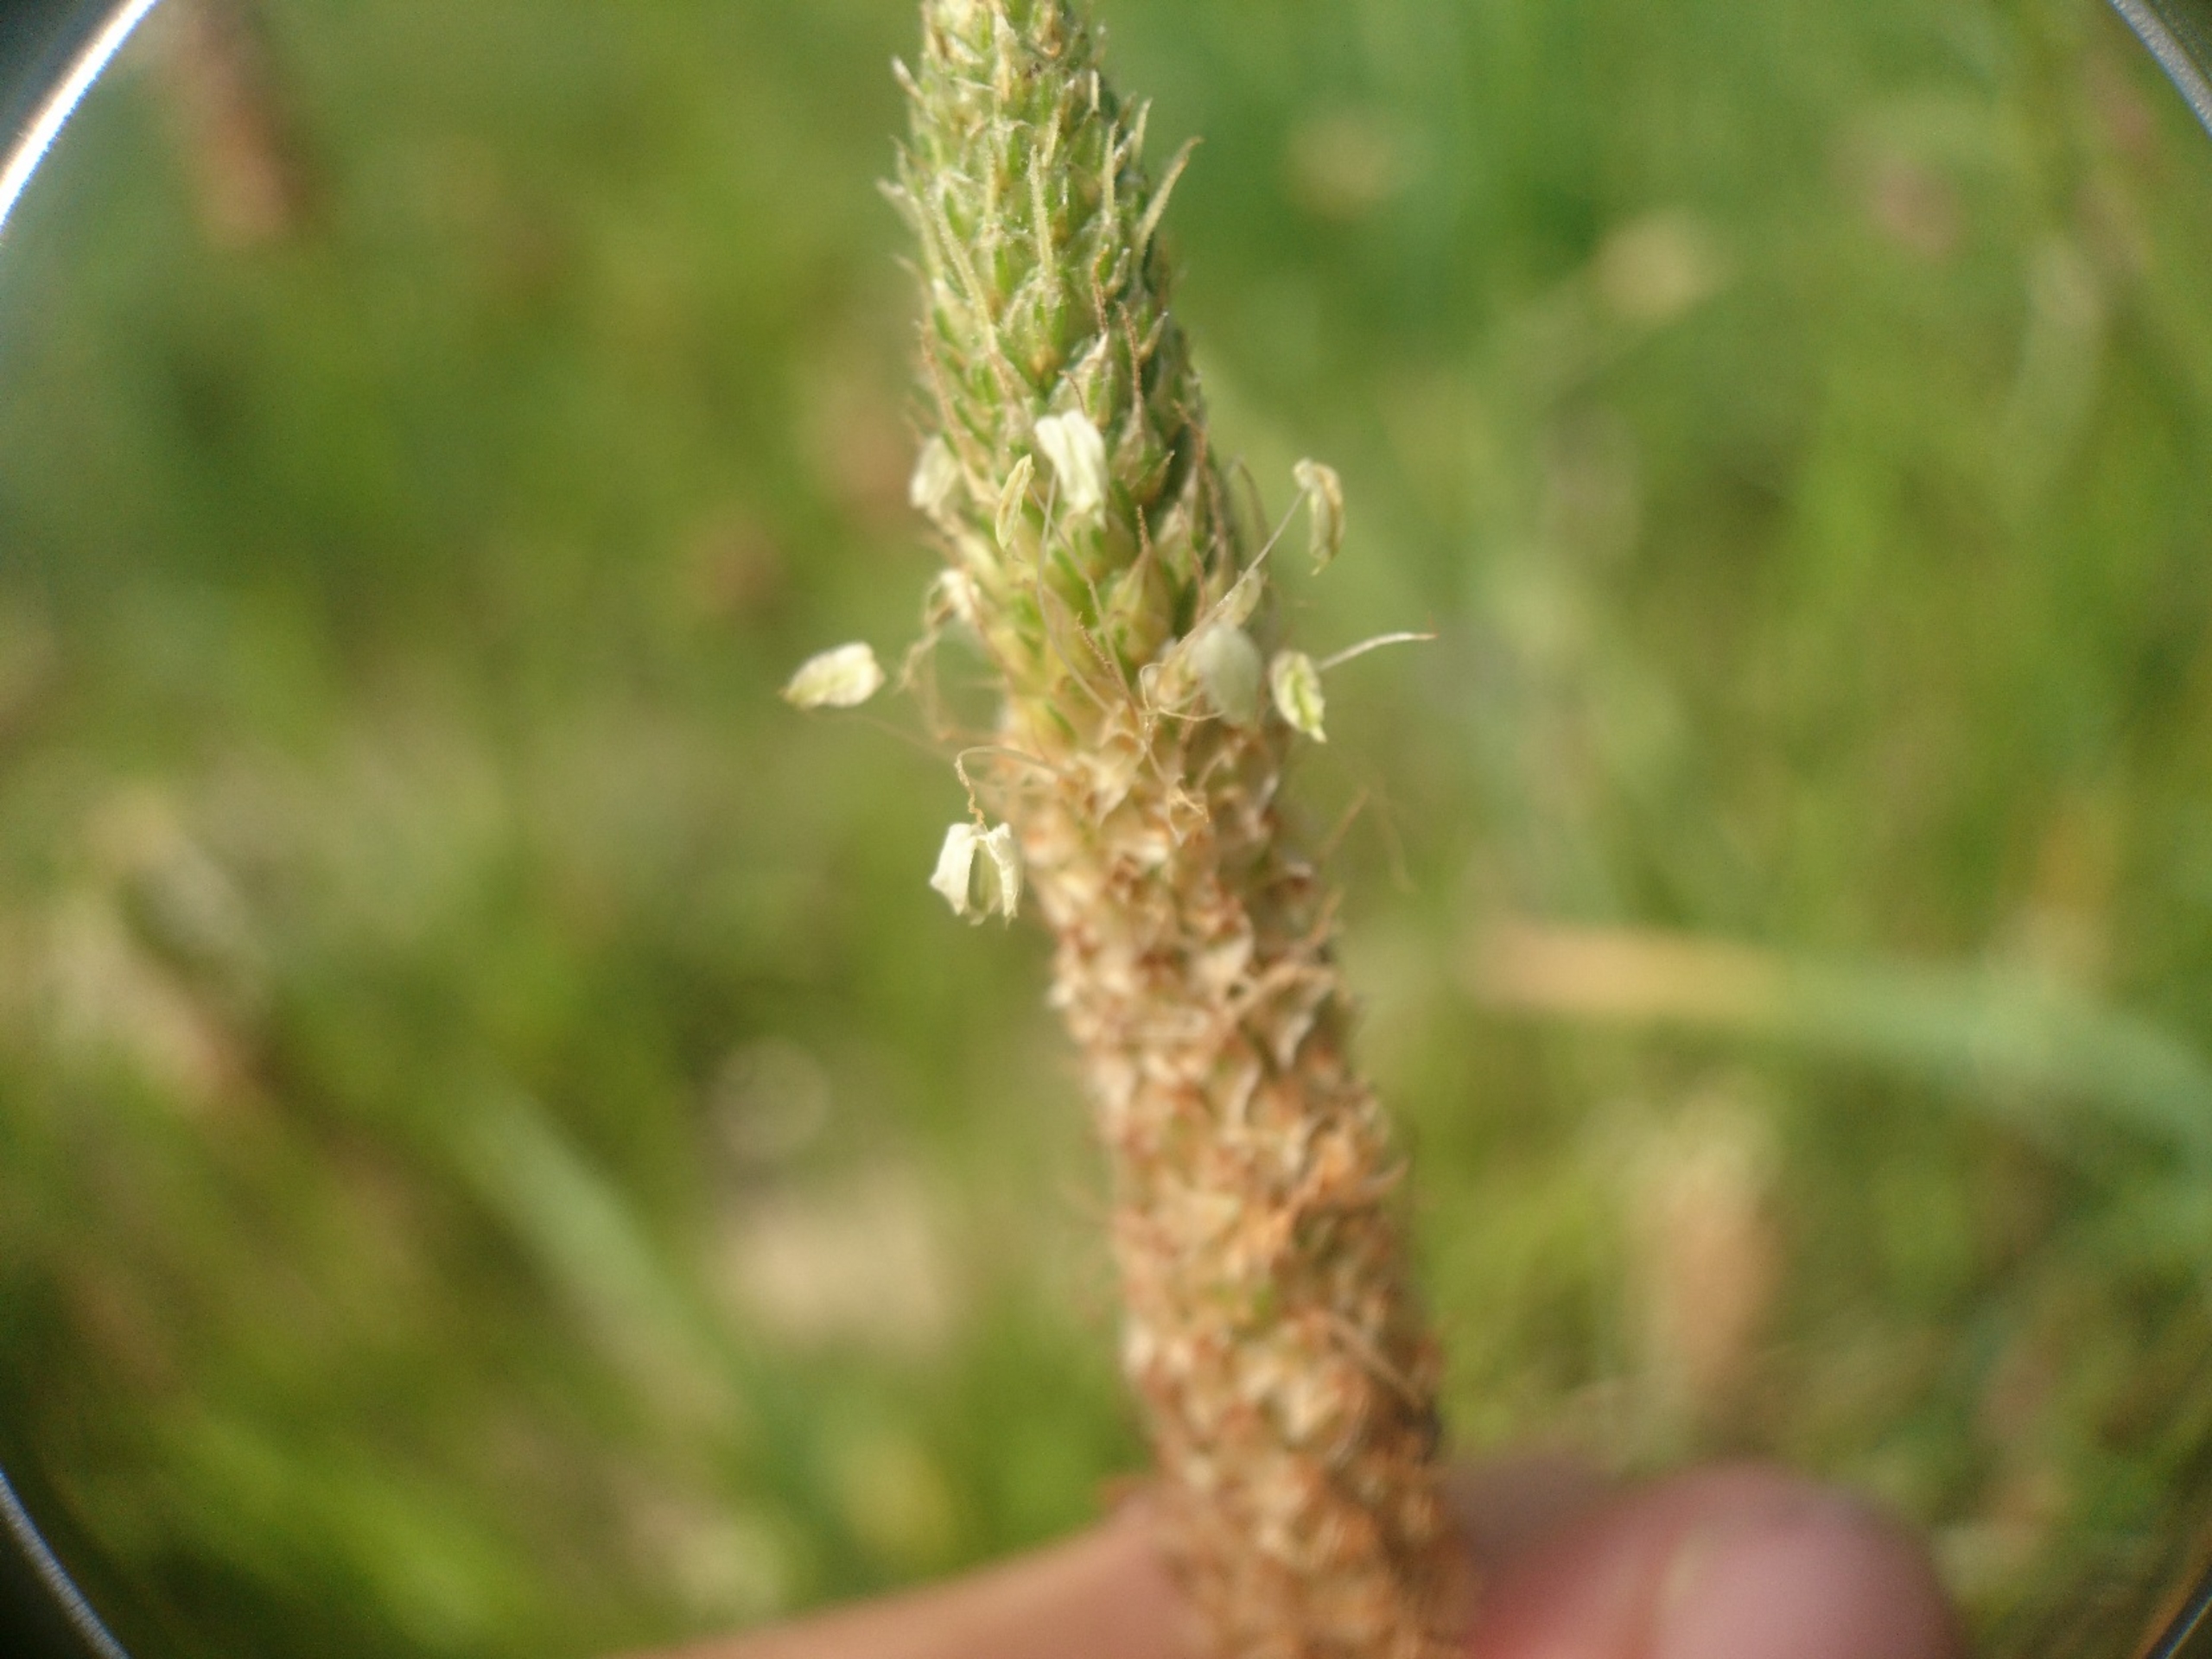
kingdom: Plantae
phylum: Tracheophyta
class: Magnoliopsida
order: Lamiales
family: Plantaginaceae
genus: Plantago
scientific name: Plantago lanceolata
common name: Lancet-vejbred
